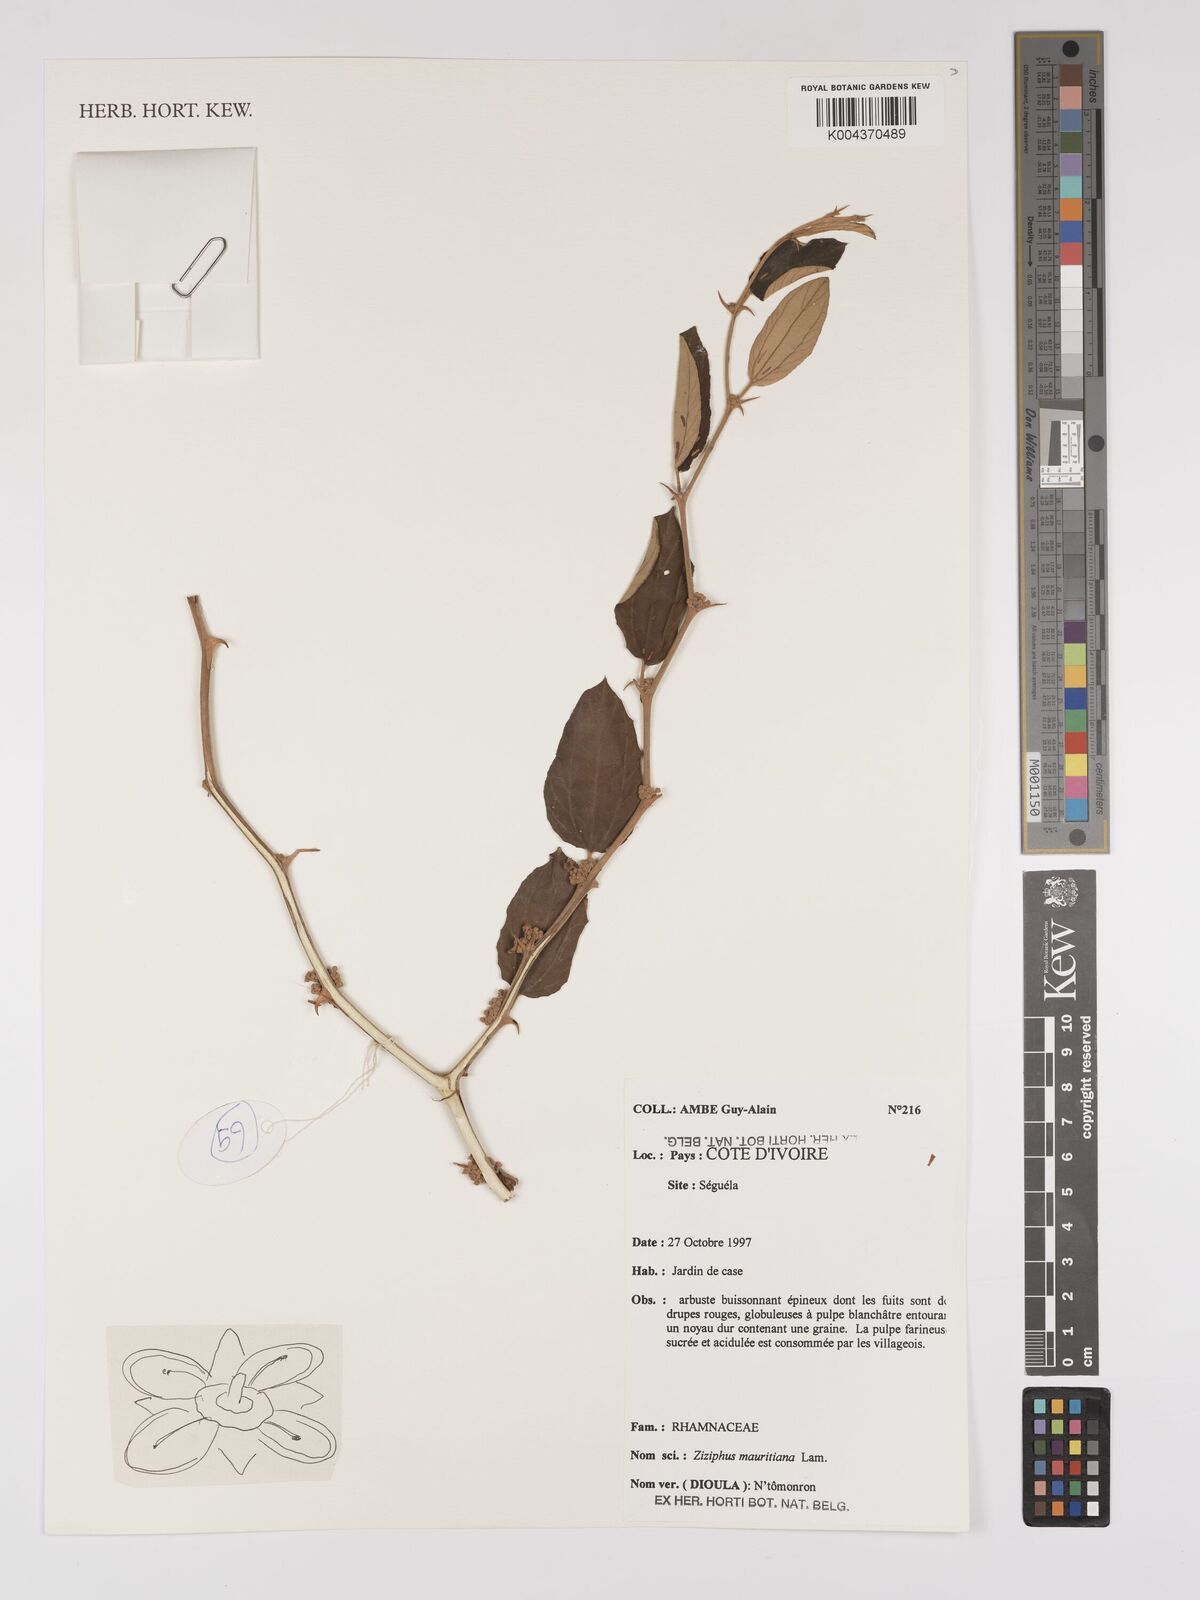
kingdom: Plantae
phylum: Tracheophyta
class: Magnoliopsida
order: Rosales
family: Rhamnaceae
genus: Ziziphus
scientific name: Ziziphus mauritiana
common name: Indian jujube
